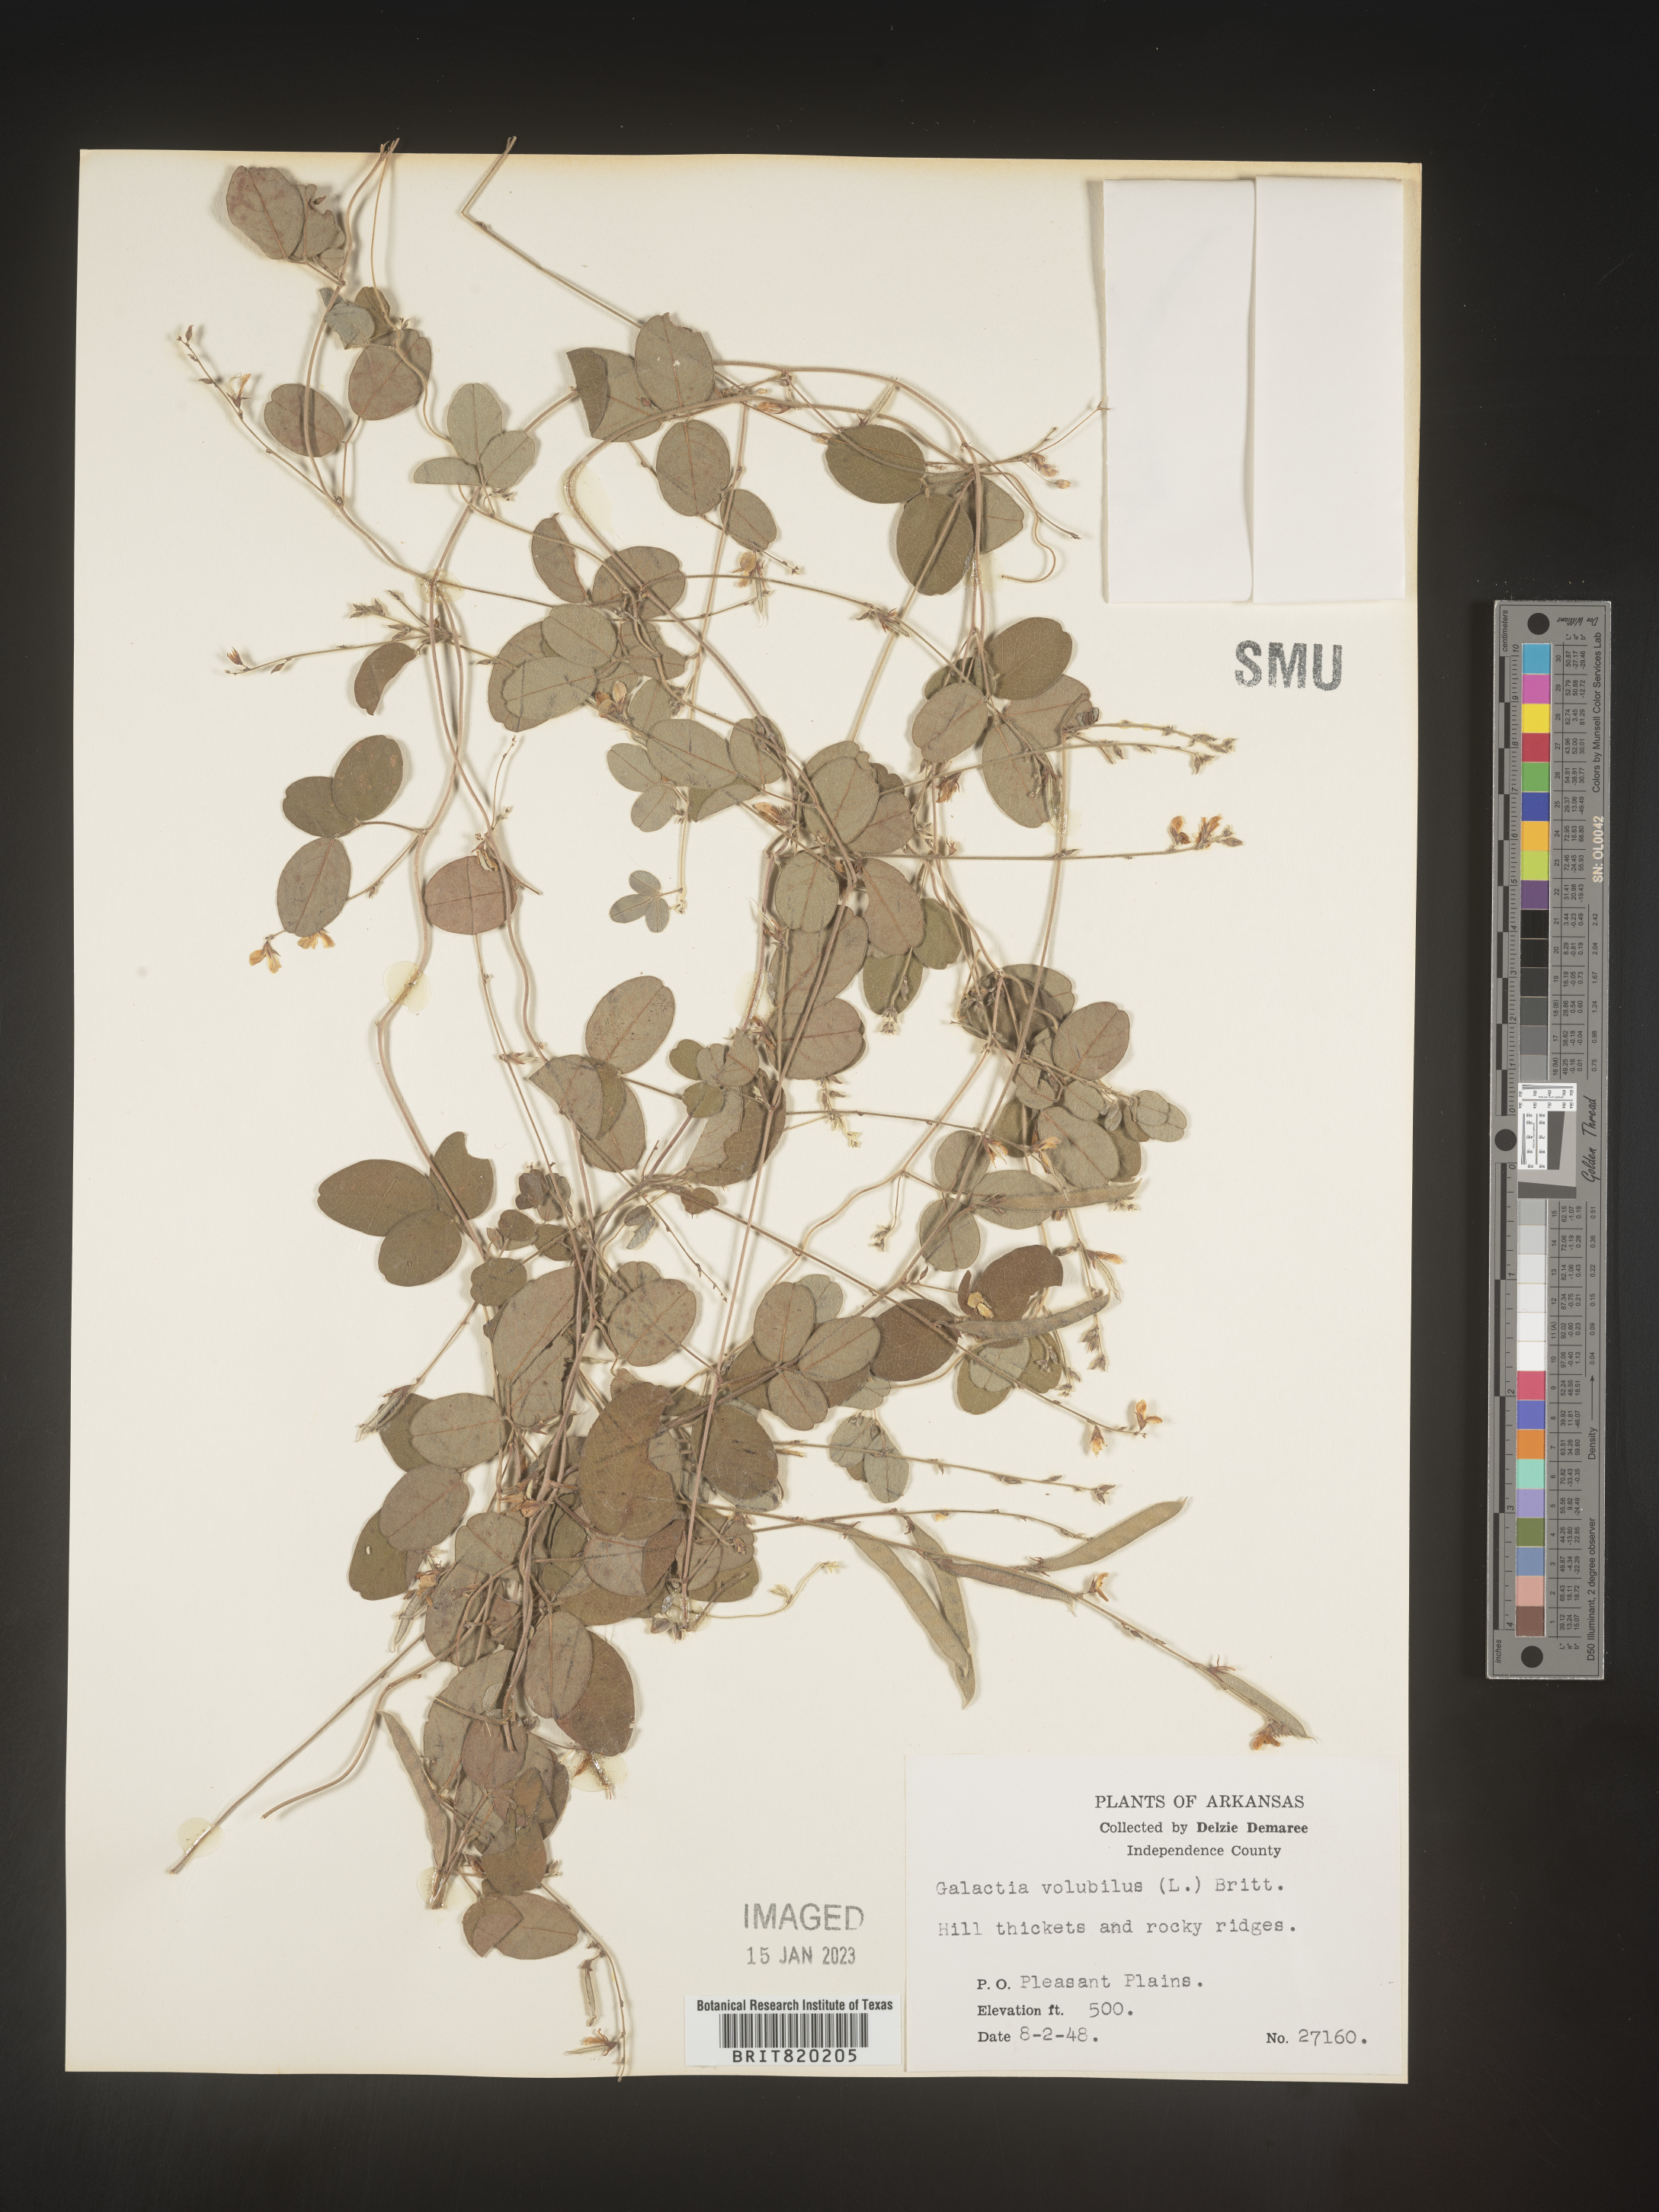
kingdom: Plantae
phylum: Tracheophyta
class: Magnoliopsida
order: Fabales
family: Fabaceae
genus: Galactia
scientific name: Galactia volubilis
